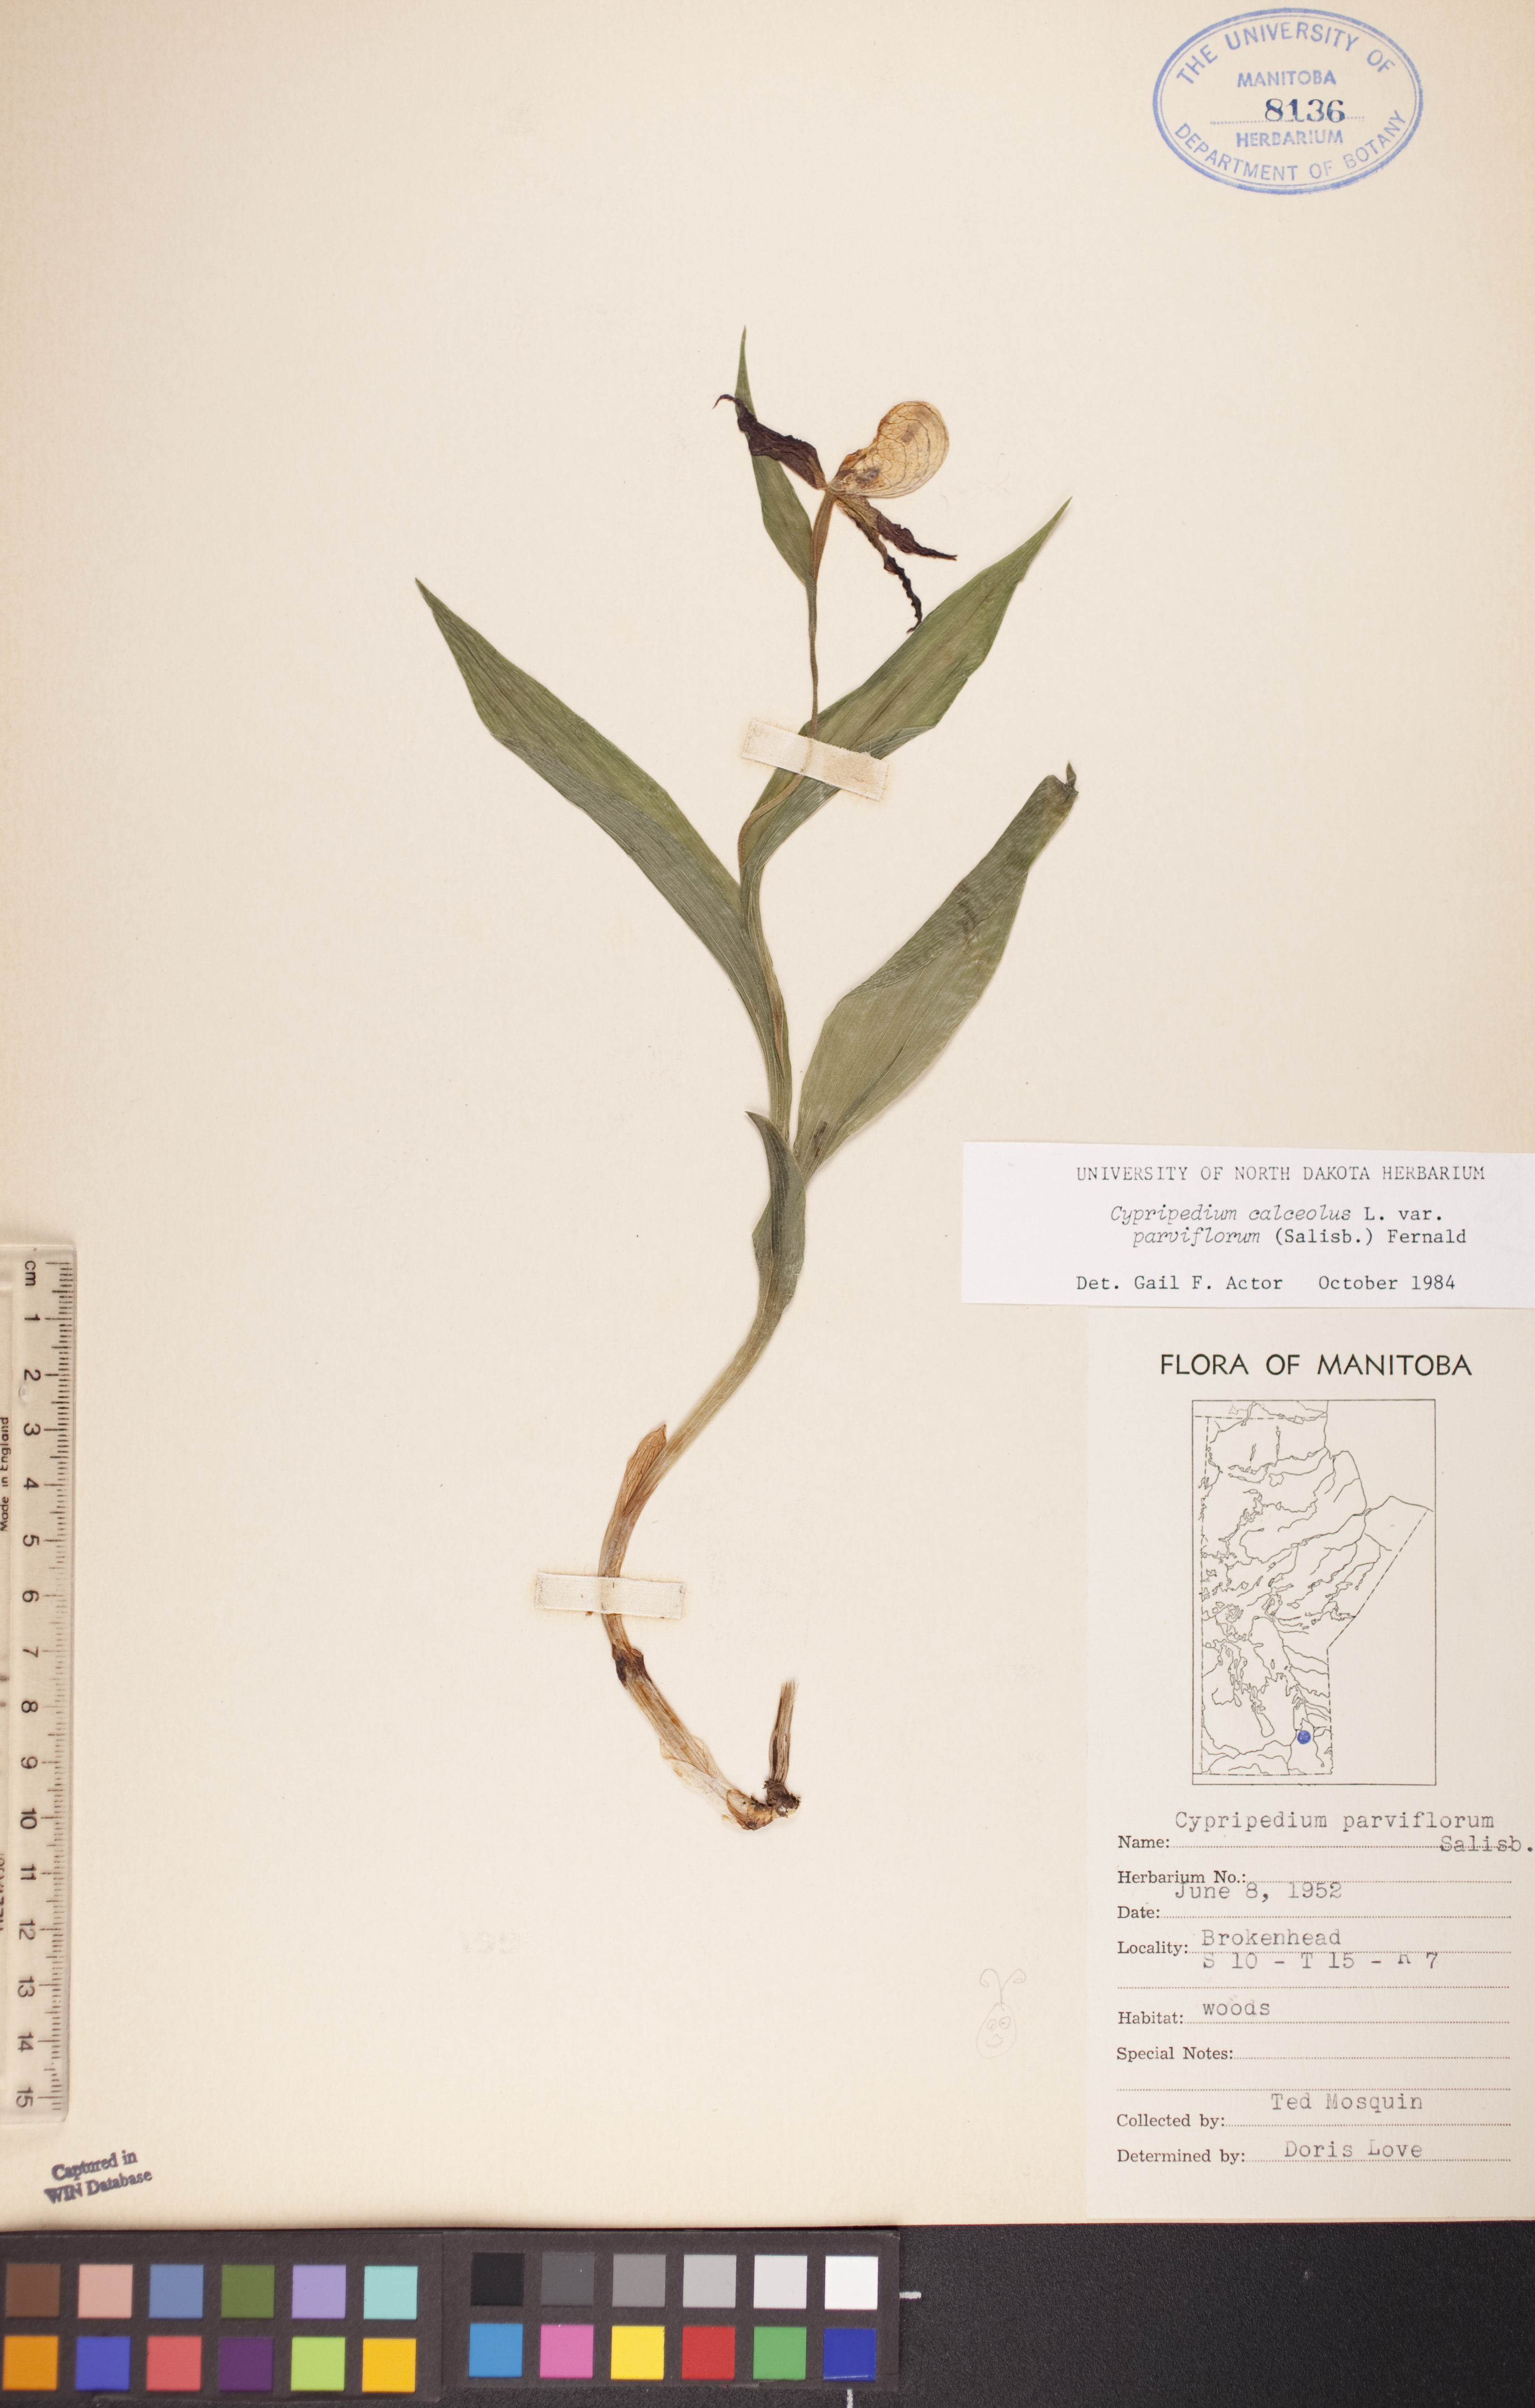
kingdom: Plantae
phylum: Tracheophyta
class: Liliopsida
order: Asparagales
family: Orchidaceae
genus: Cypripedium
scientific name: Cypripedium parviflorum
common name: American yellow lady's-slipper
